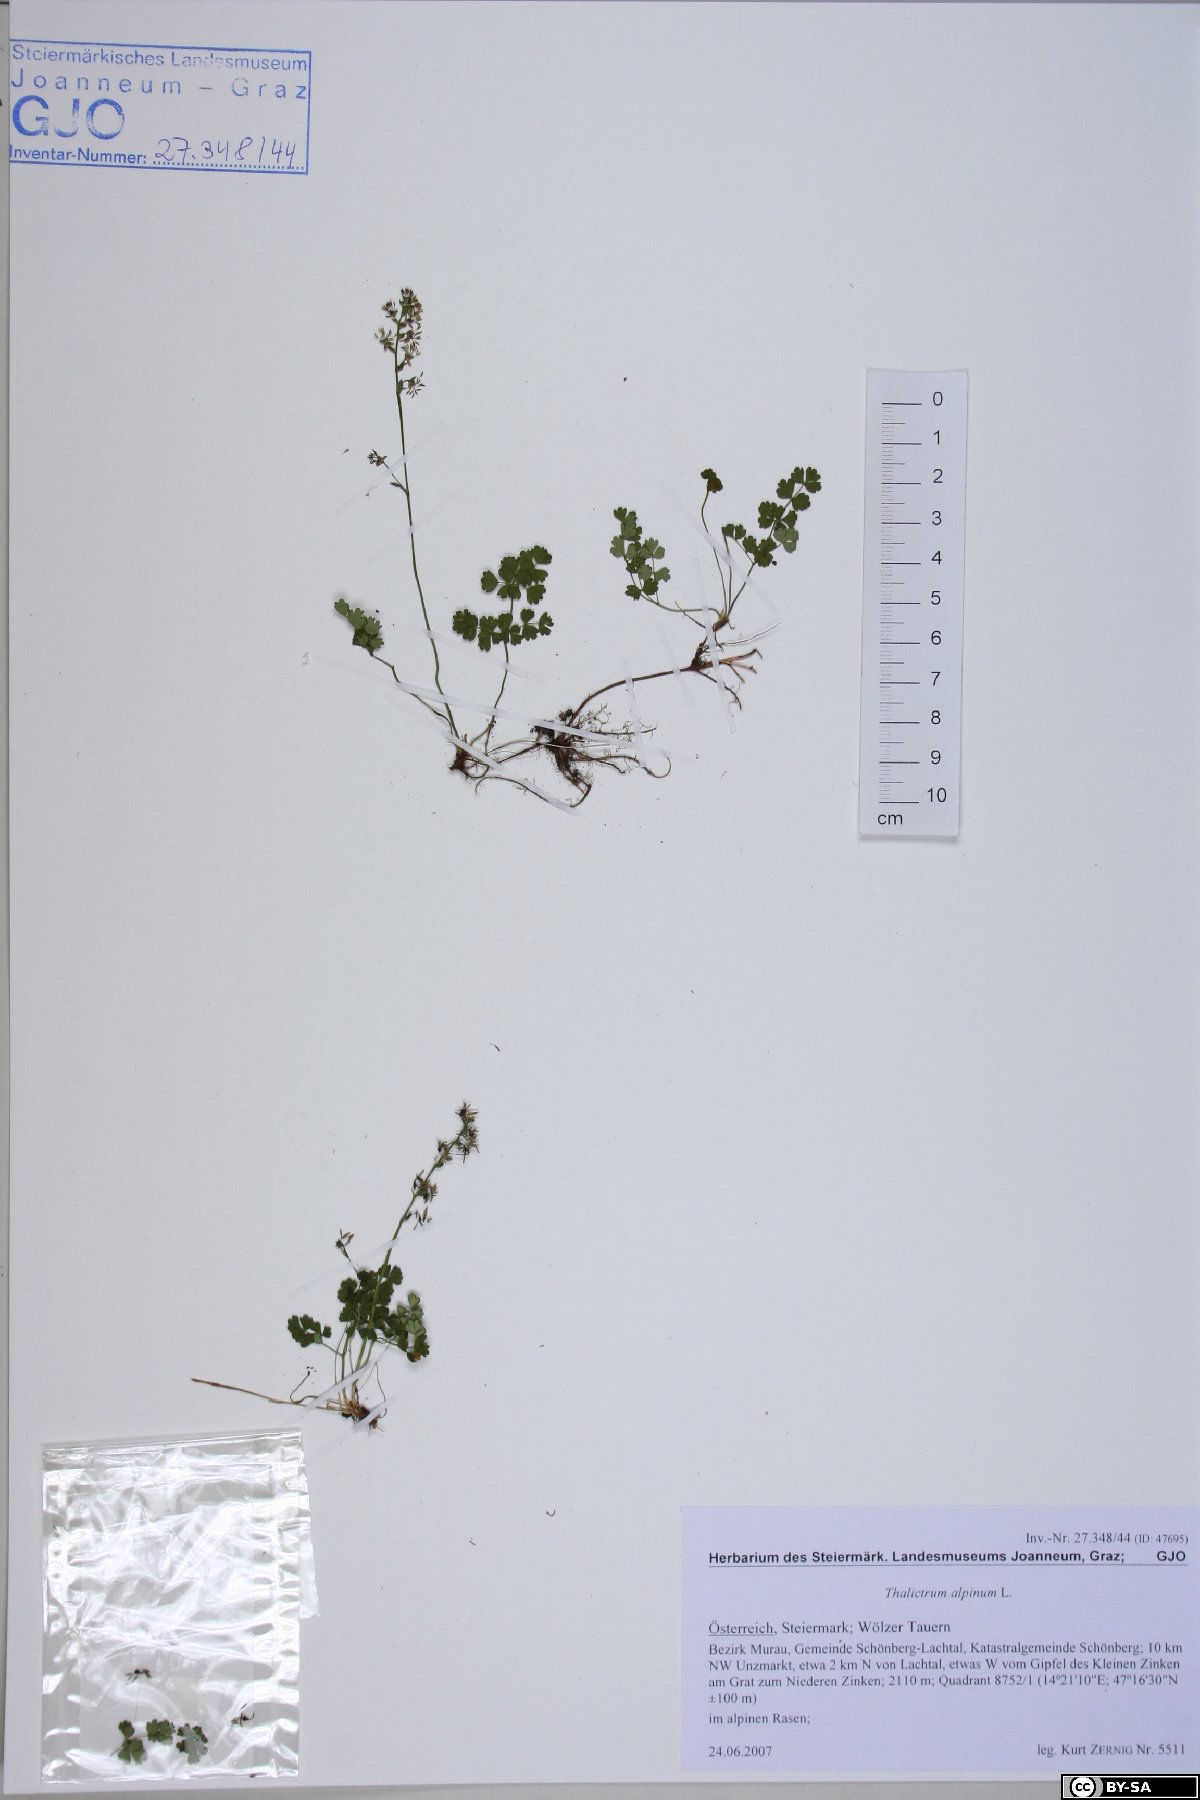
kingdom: Plantae
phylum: Tracheophyta
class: Magnoliopsida
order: Ranunculales
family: Ranunculaceae
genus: Thalictrum
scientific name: Thalictrum alpinum
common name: Alpine meadow-rue
